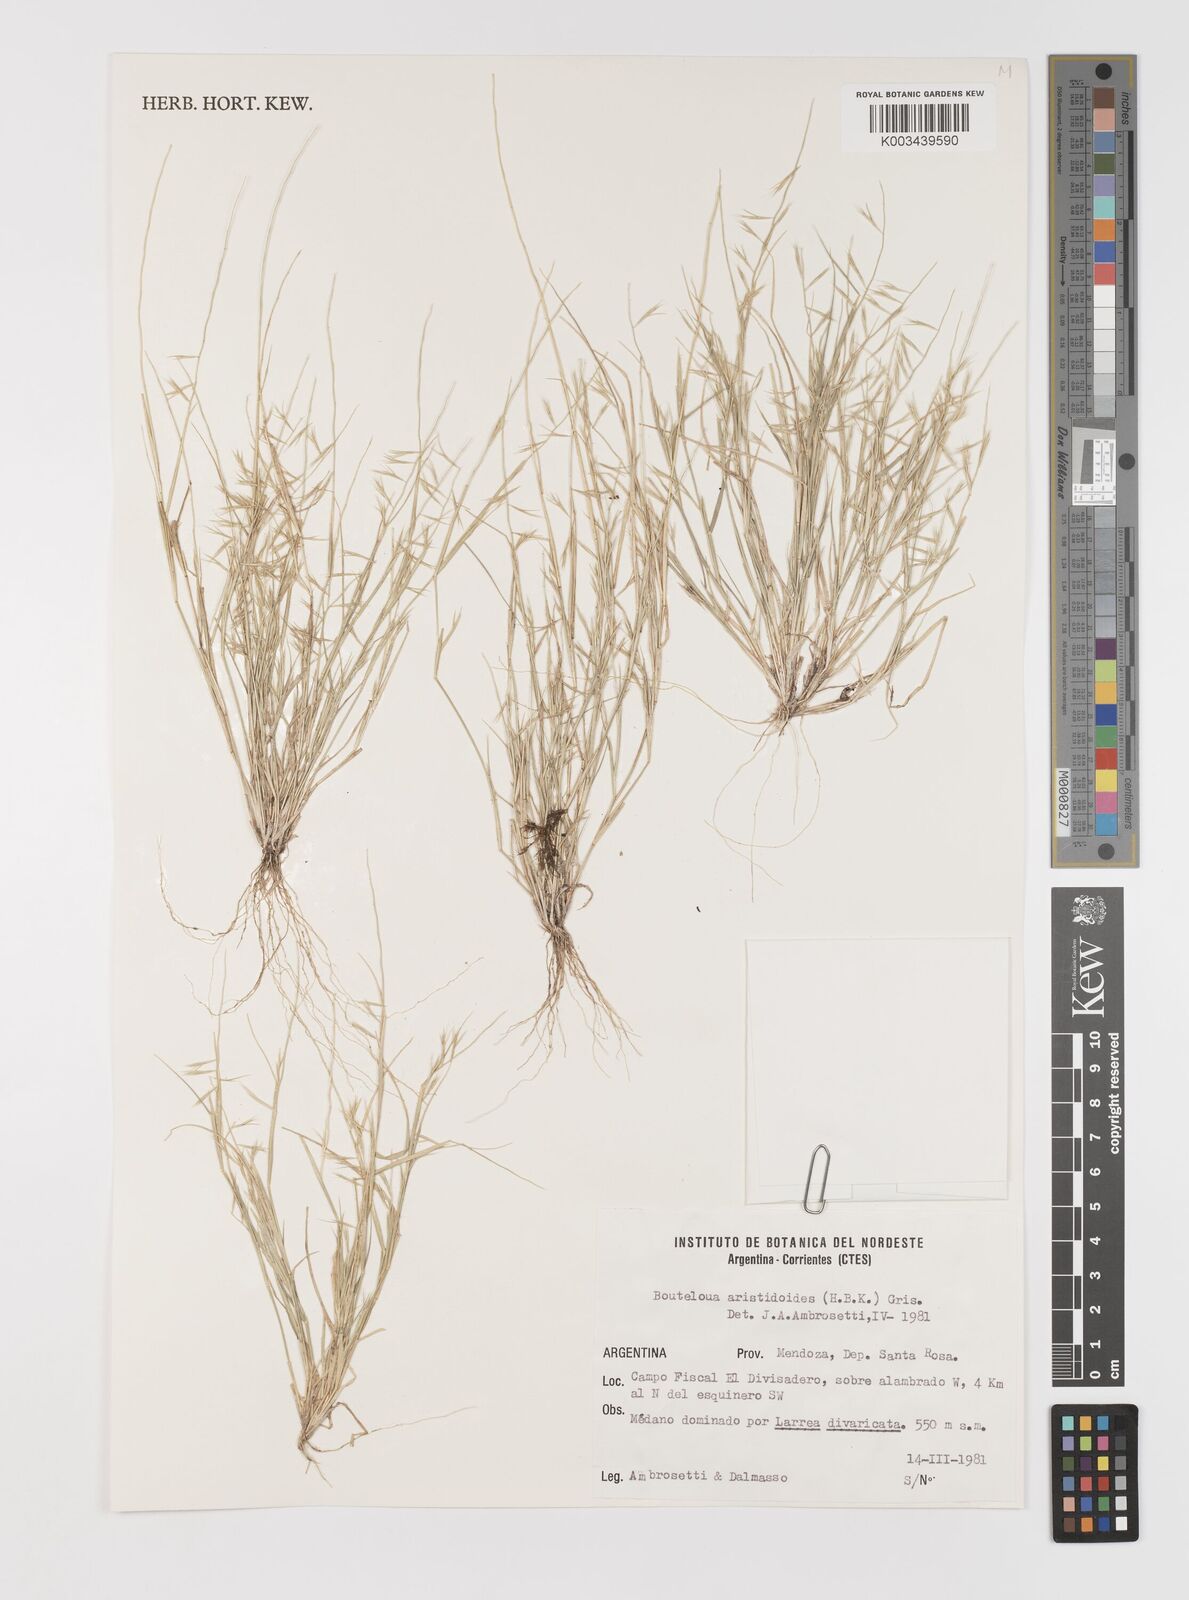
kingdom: Plantae
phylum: Tracheophyta
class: Liliopsida
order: Poales
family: Poaceae
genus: Bouteloua
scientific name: Bouteloua
